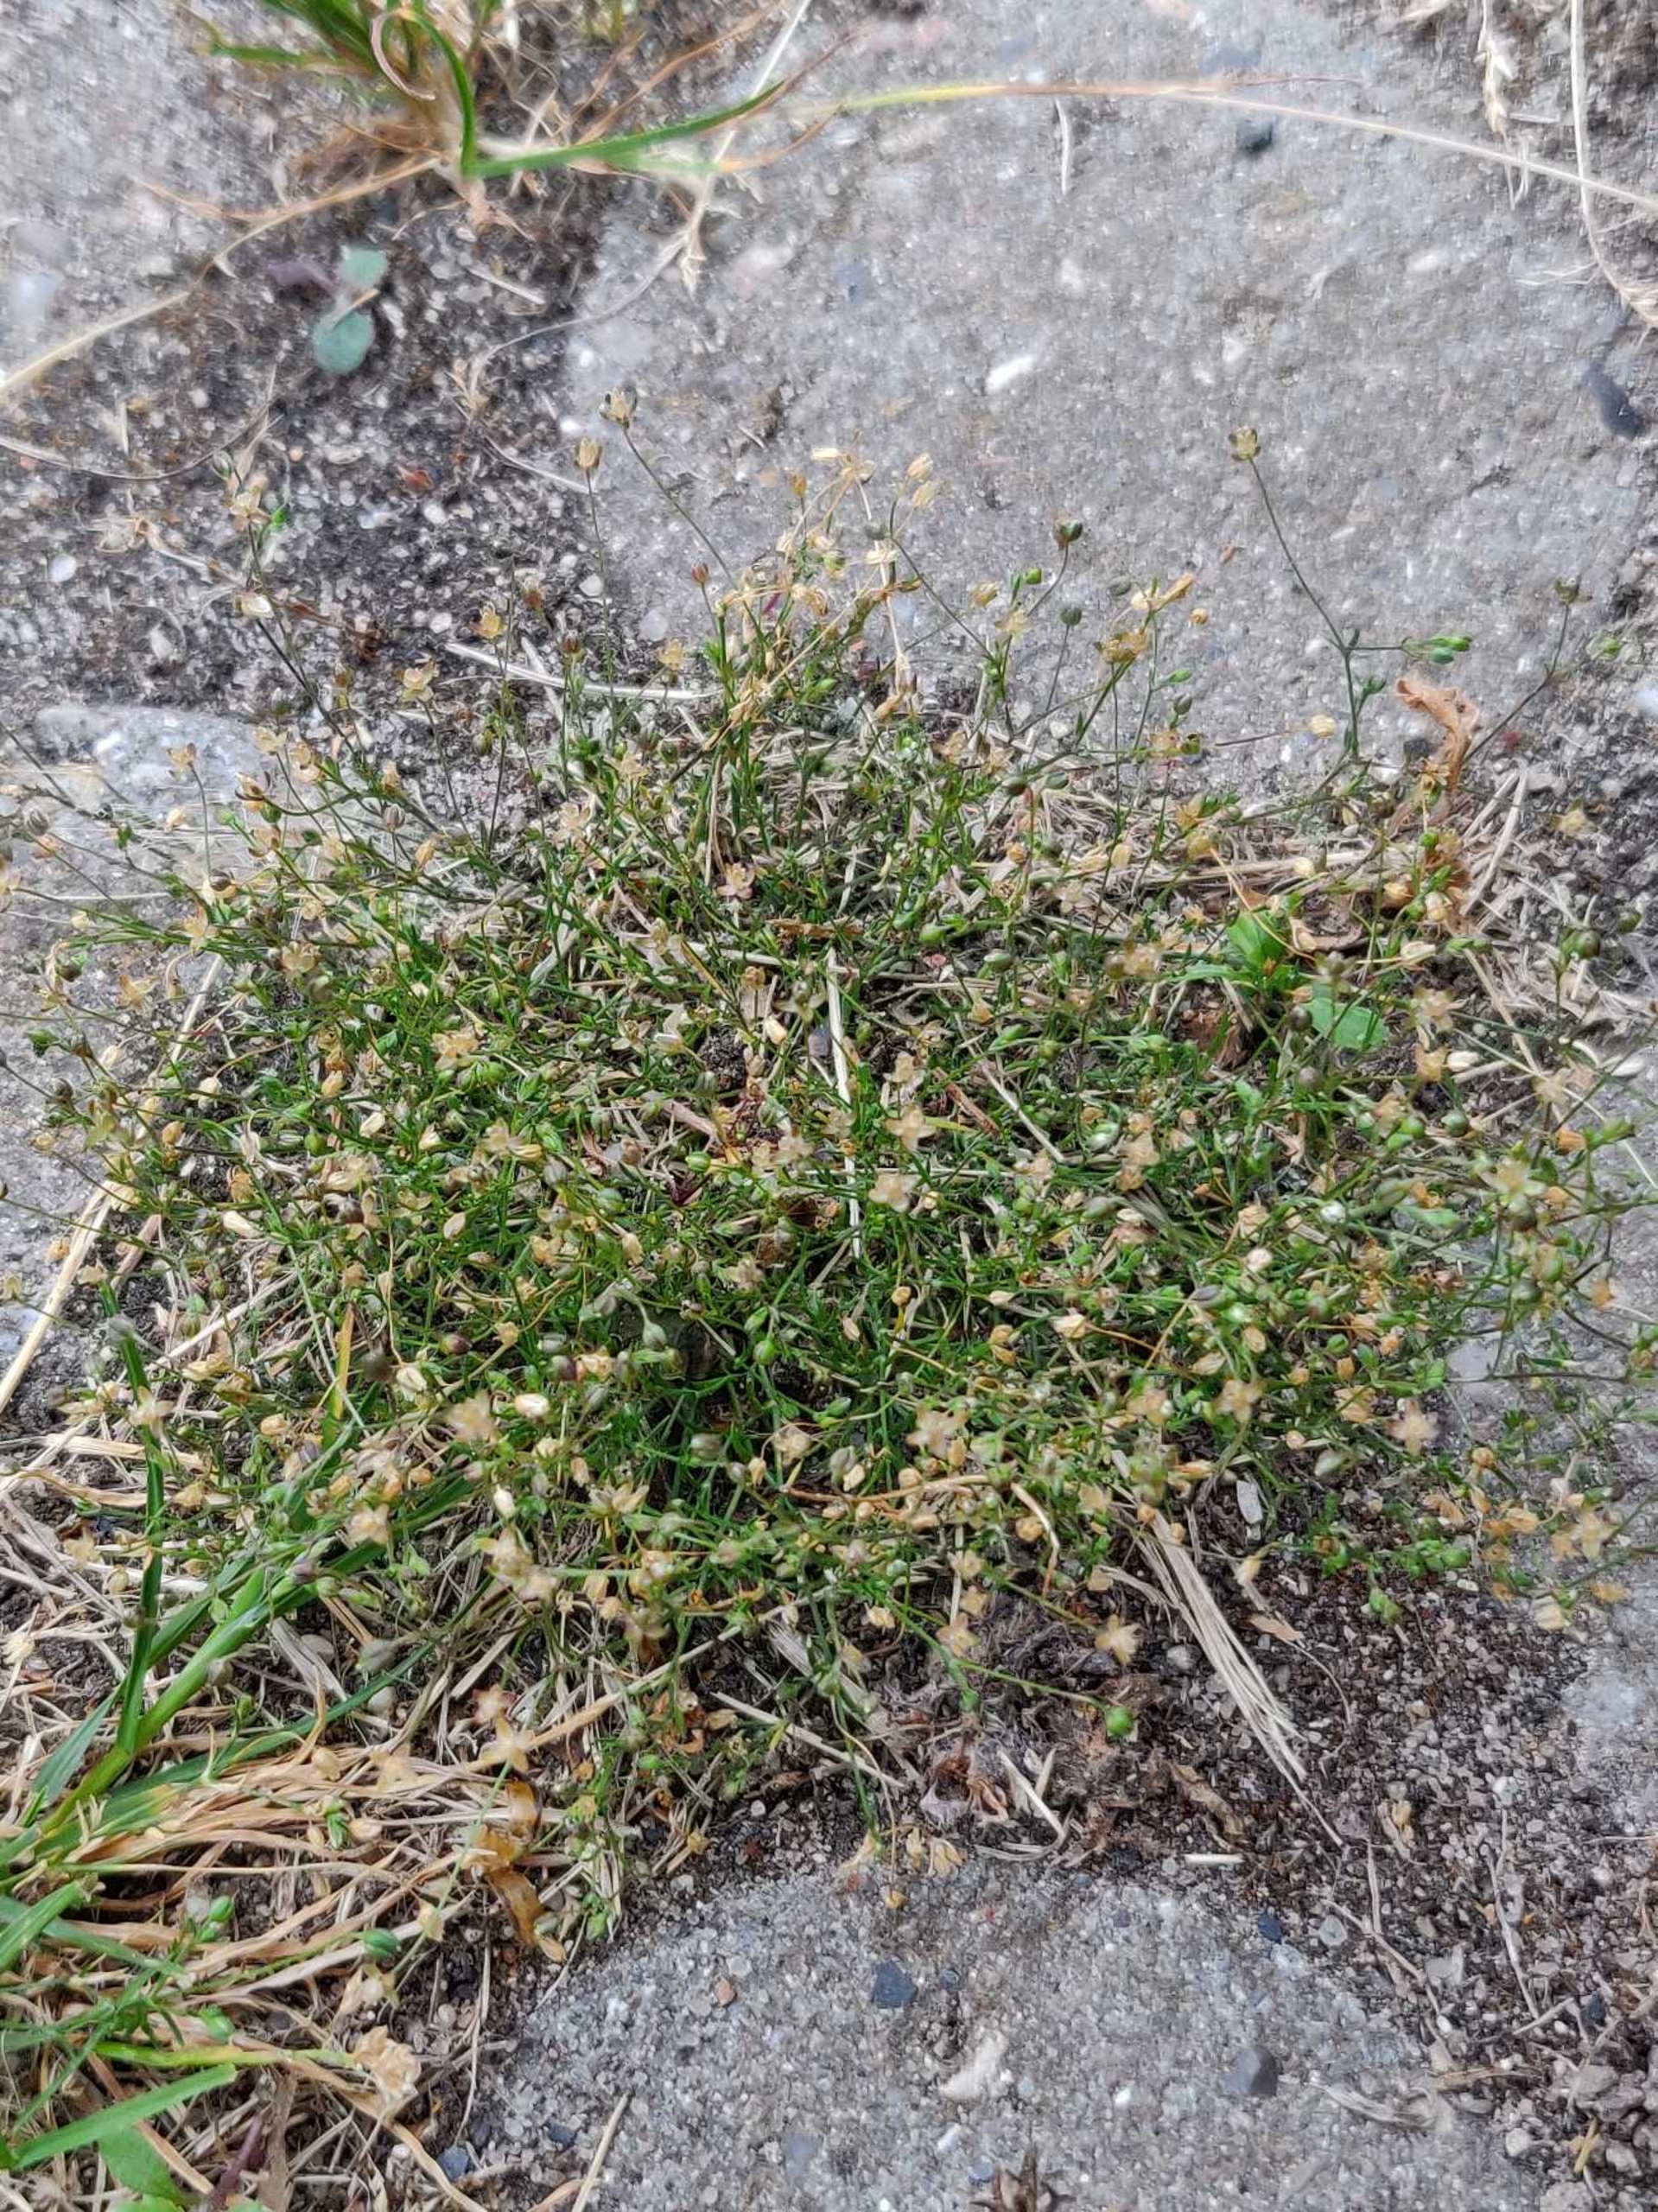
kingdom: Plantae
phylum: Tracheophyta
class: Magnoliopsida
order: Caryophyllales
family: Caryophyllaceae
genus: Sagina
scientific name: Sagina procumbens
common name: Almindelig firling
